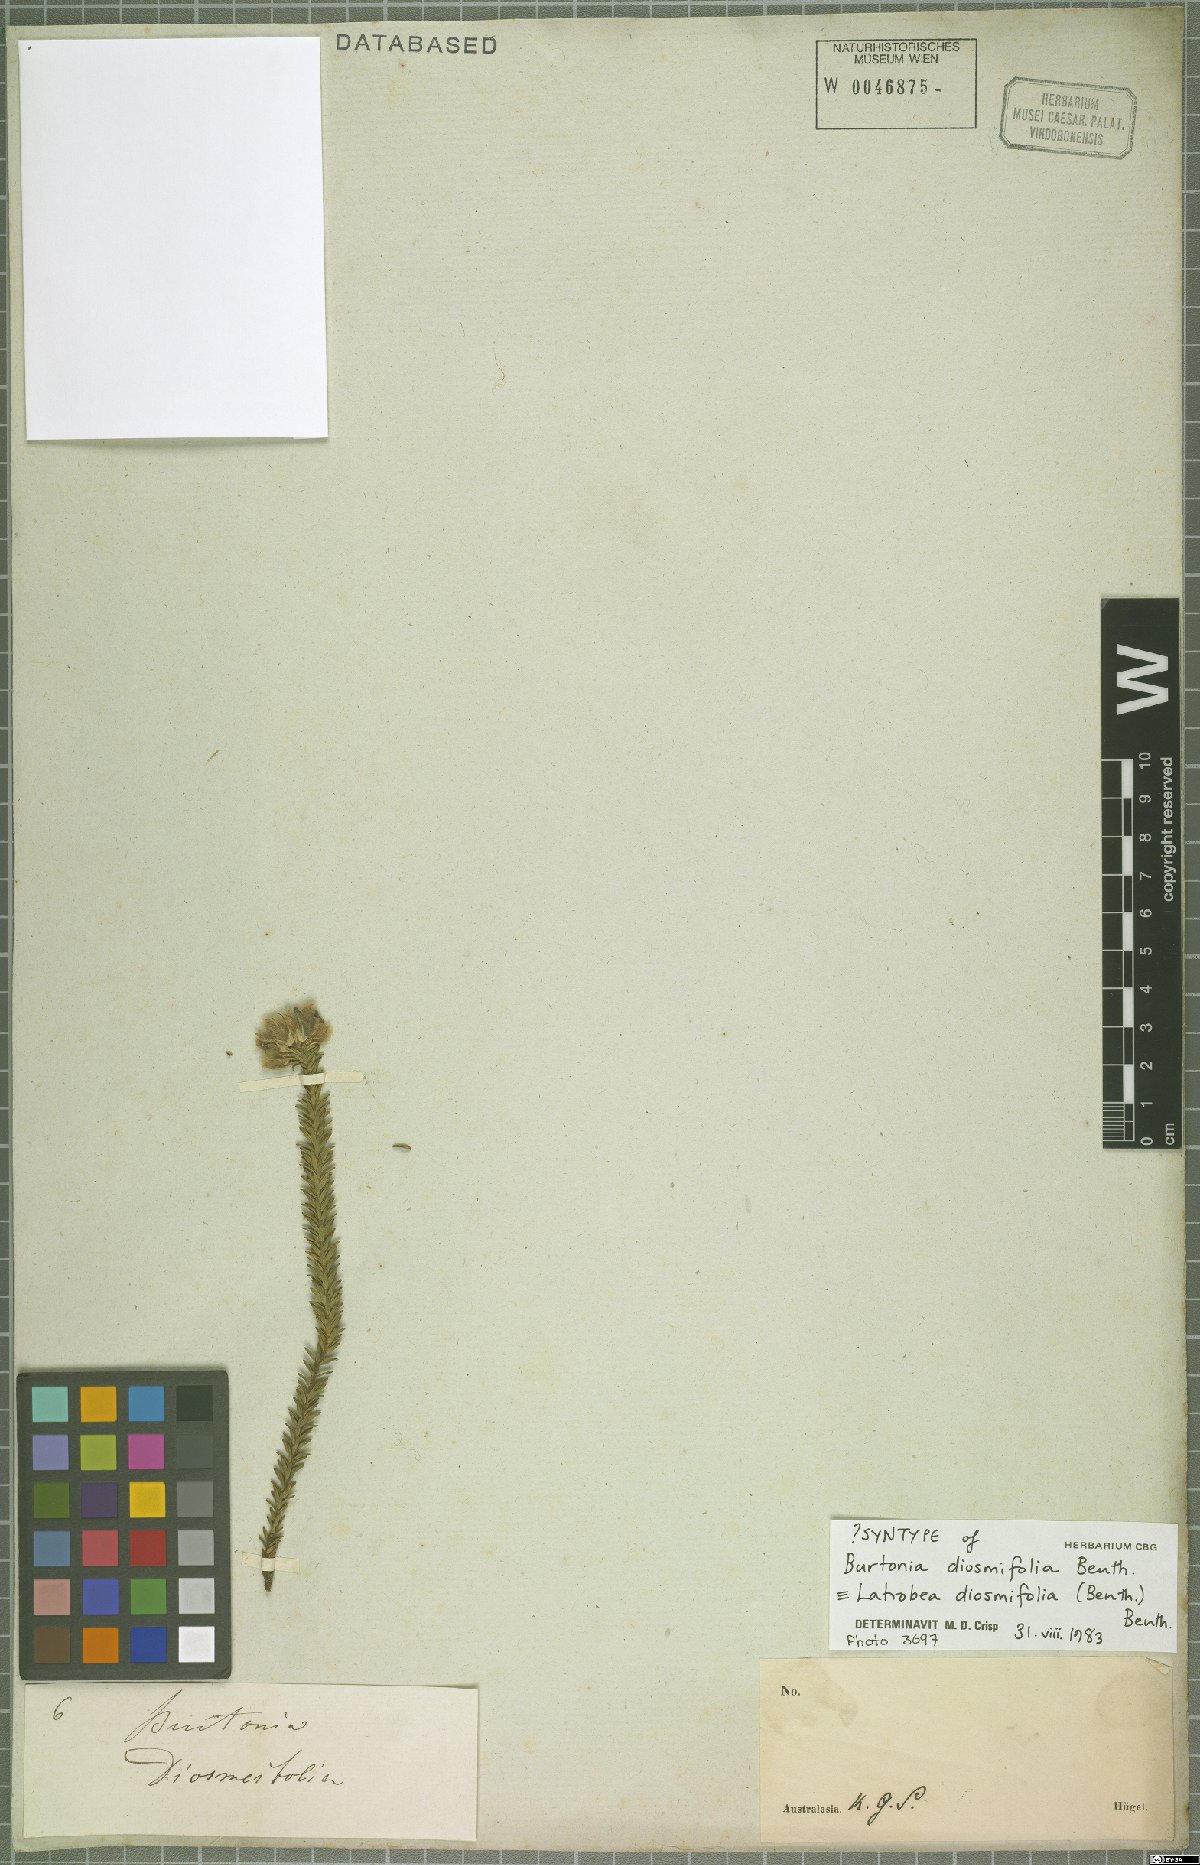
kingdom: Plantae
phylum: Tracheophyta
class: Magnoliopsida
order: Fabales
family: Fabaceae
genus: Latrobea
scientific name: Latrobea diosmifolia
